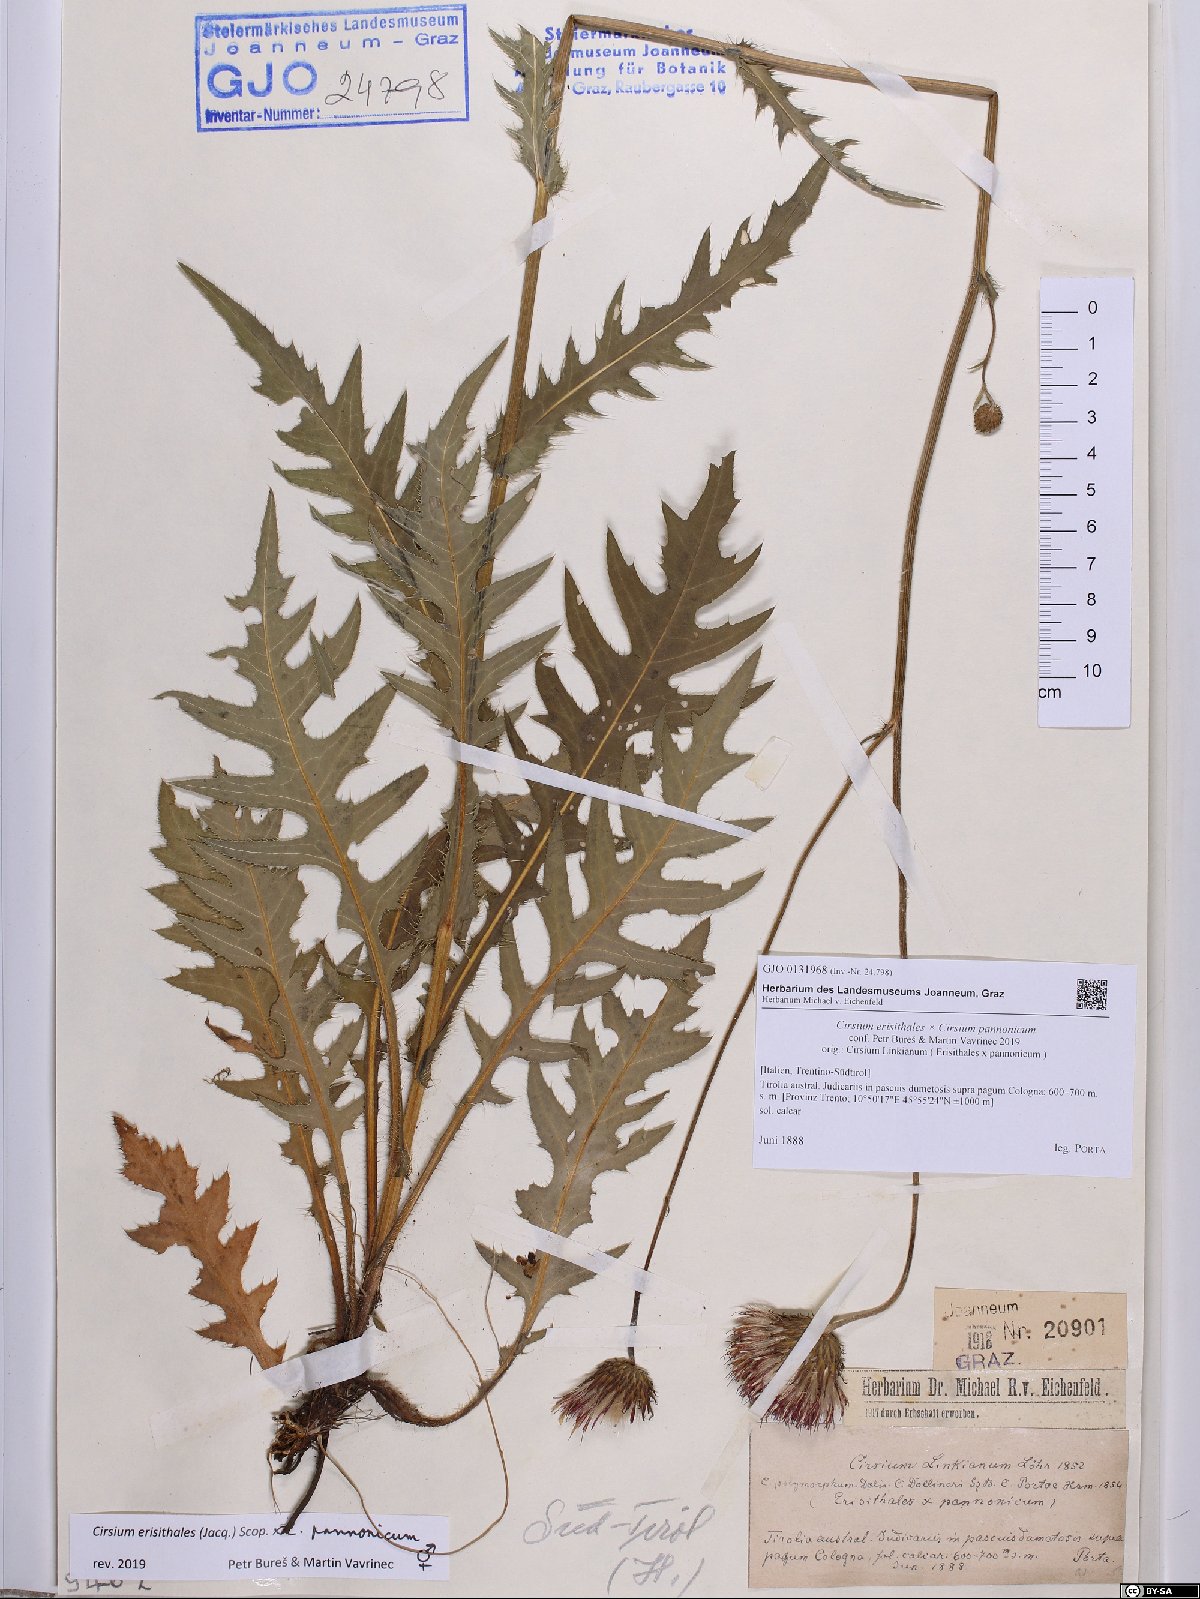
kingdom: Plantae
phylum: Tracheophyta
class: Magnoliopsida
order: Asterales
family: Asteraceae
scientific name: Asteraceae
